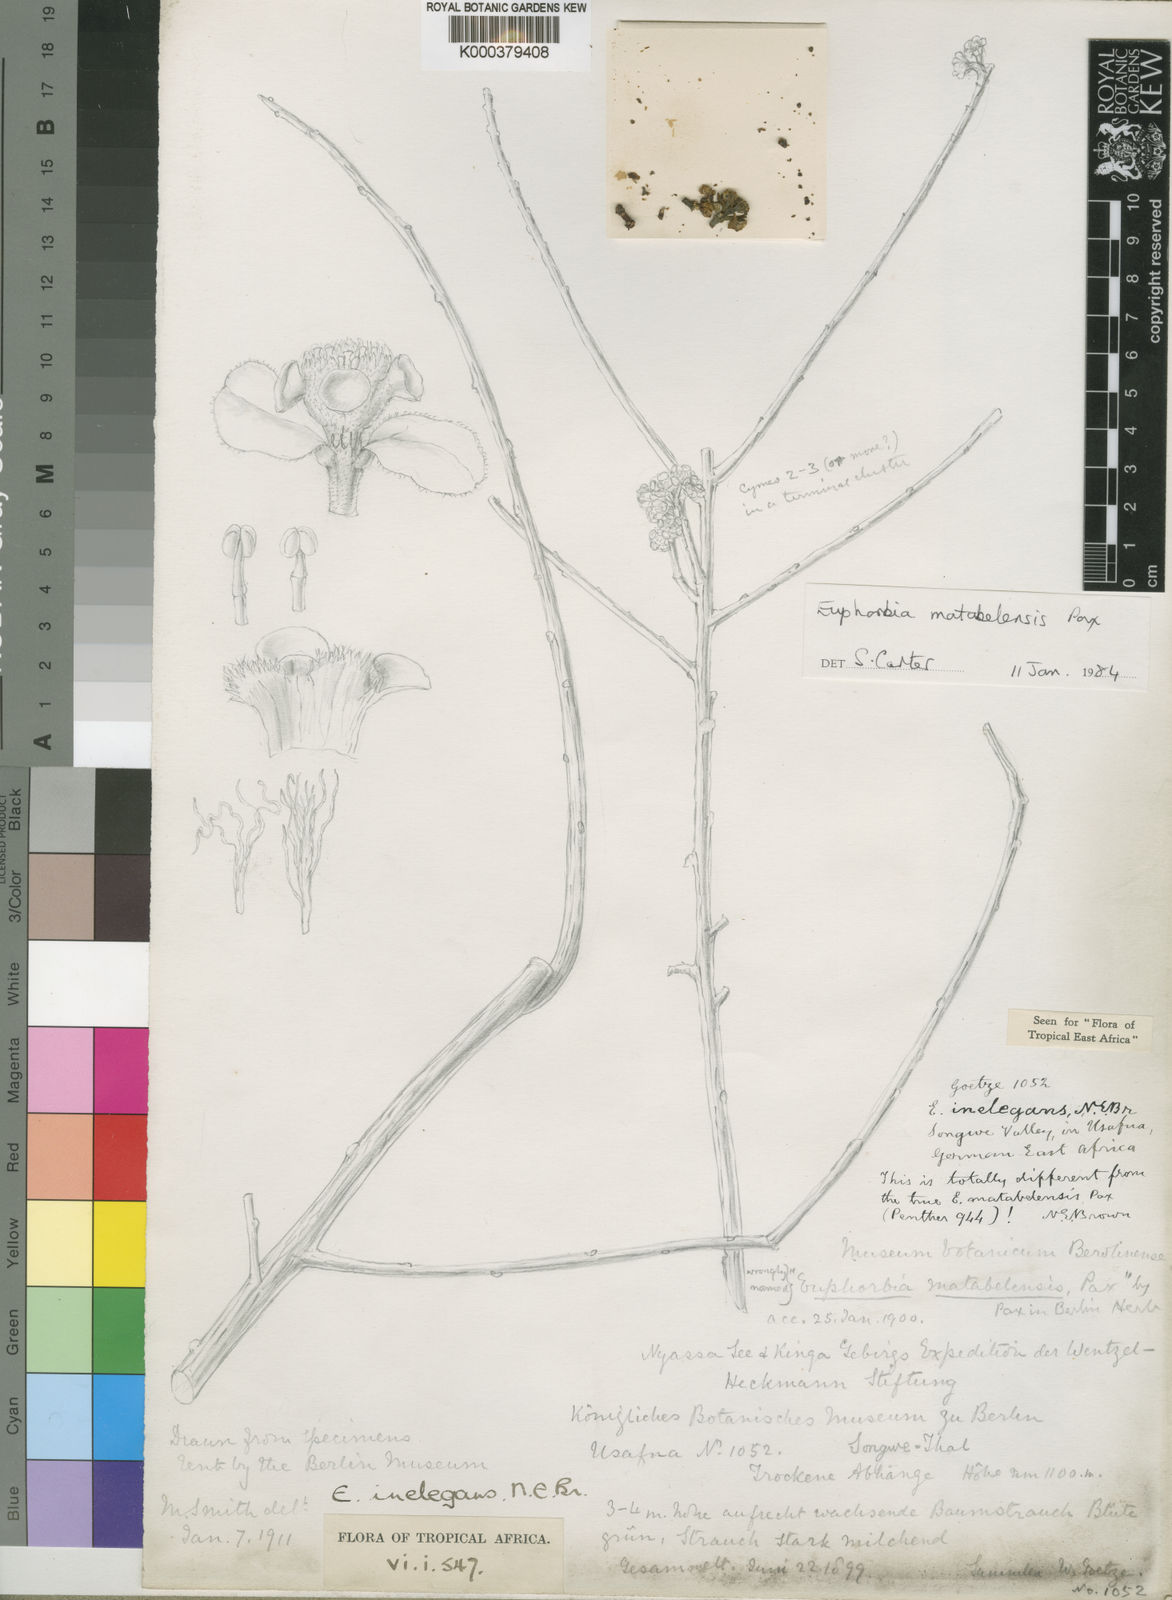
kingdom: Plantae
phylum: Tracheophyta
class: Magnoliopsida
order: Malpighiales
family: Euphorbiaceae
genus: Euphorbia
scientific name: Euphorbia matabelensis
